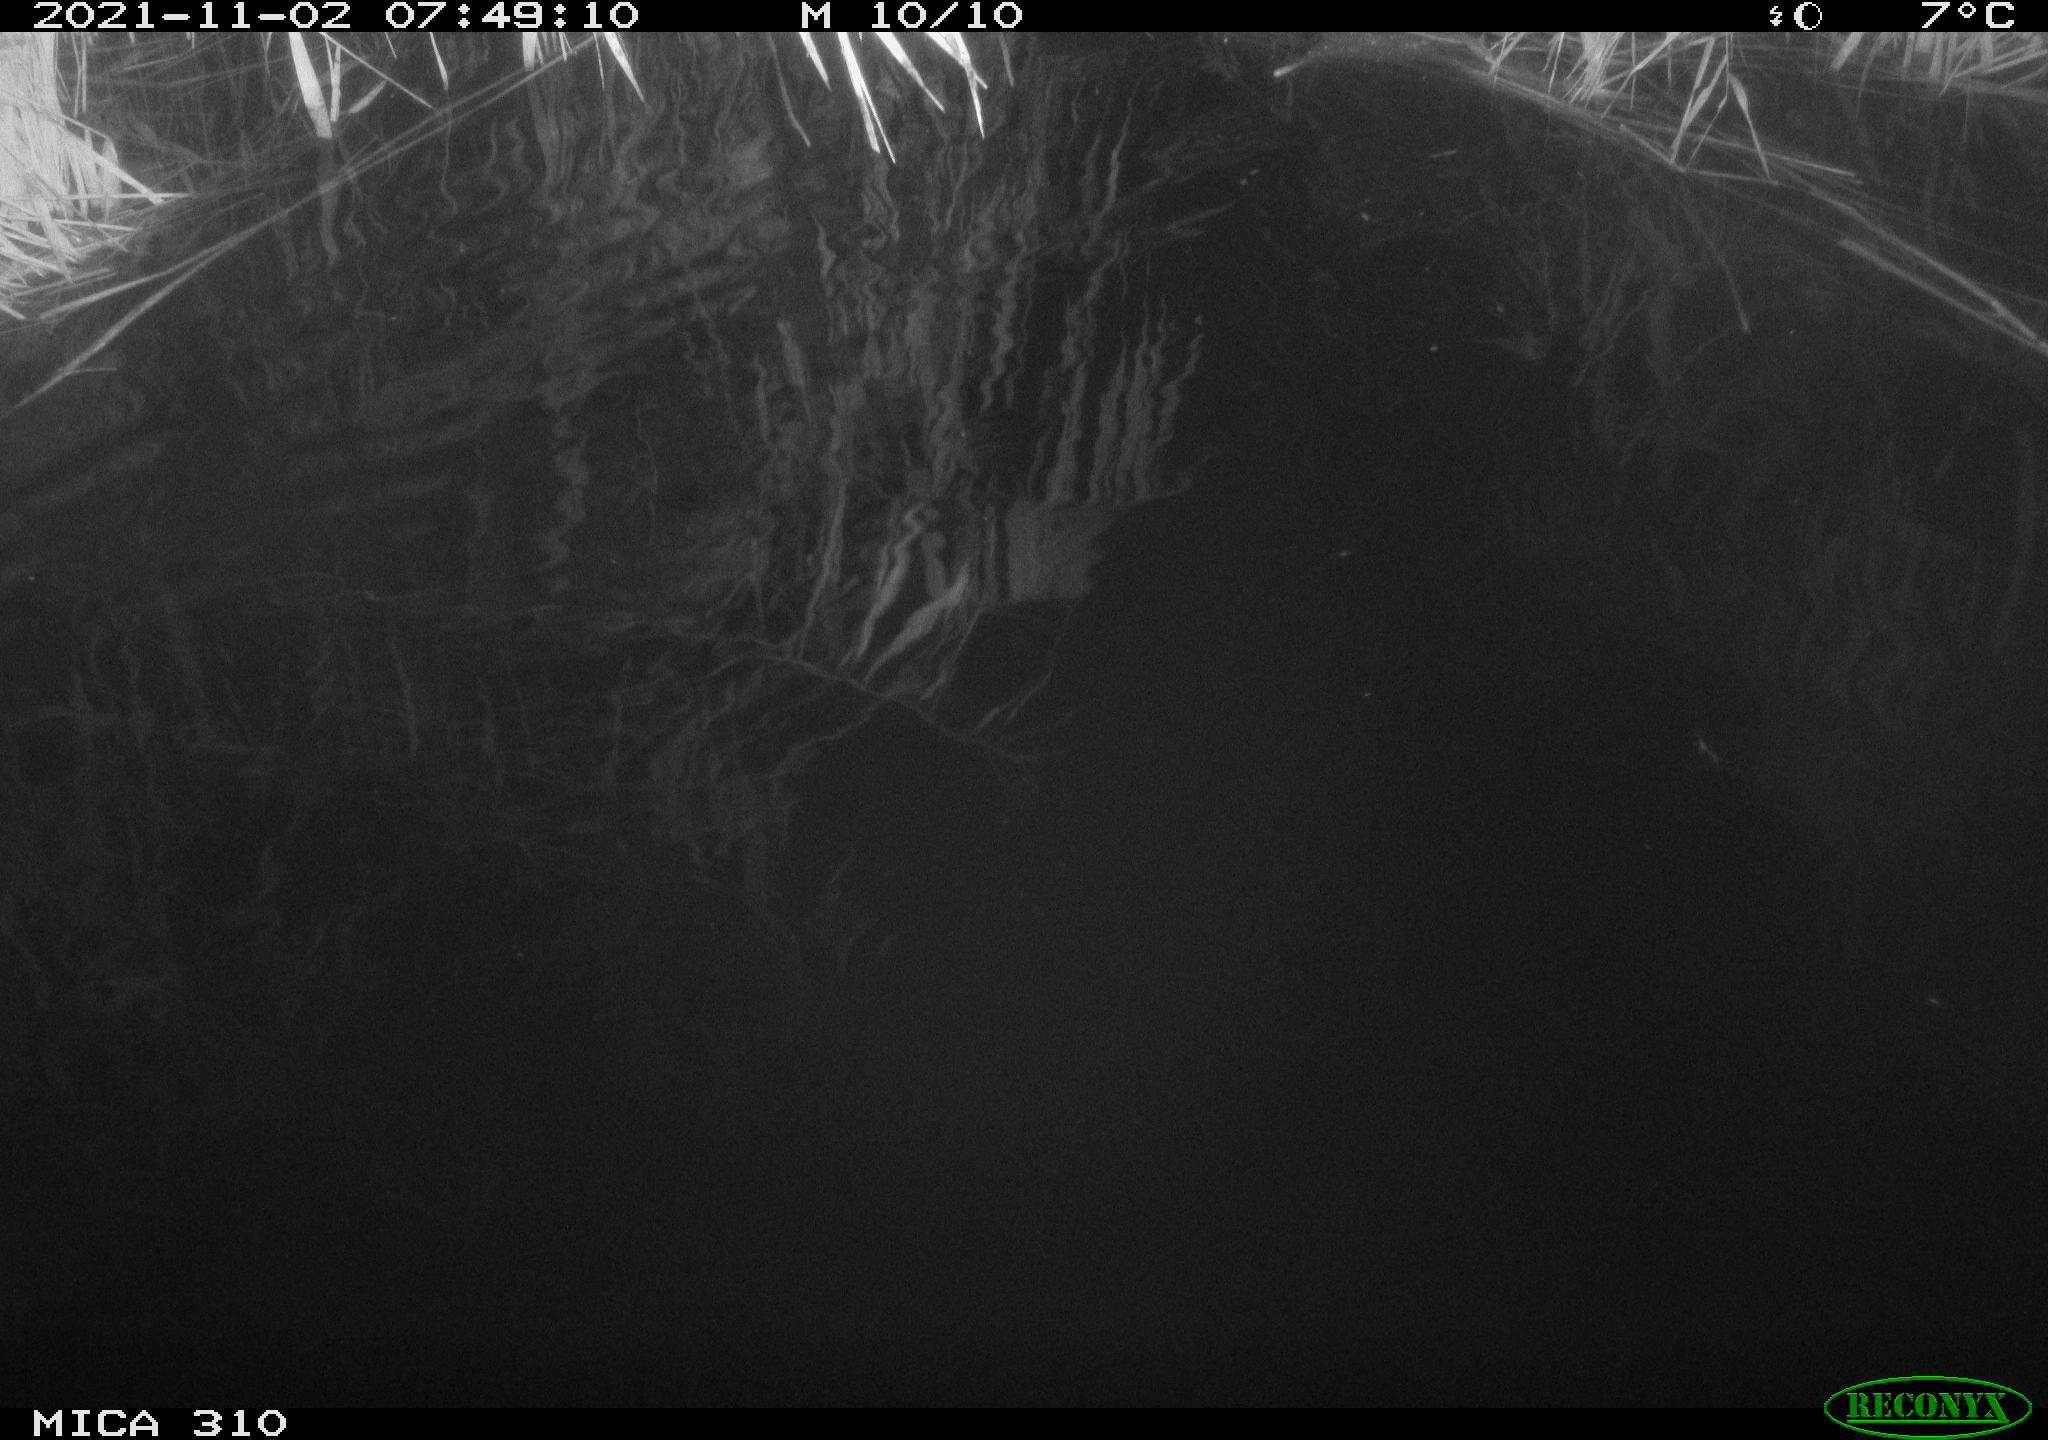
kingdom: Animalia
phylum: Chordata
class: Aves
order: Gruiformes
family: Rallidae
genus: Gallinula
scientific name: Gallinula chloropus
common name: Common moorhen
